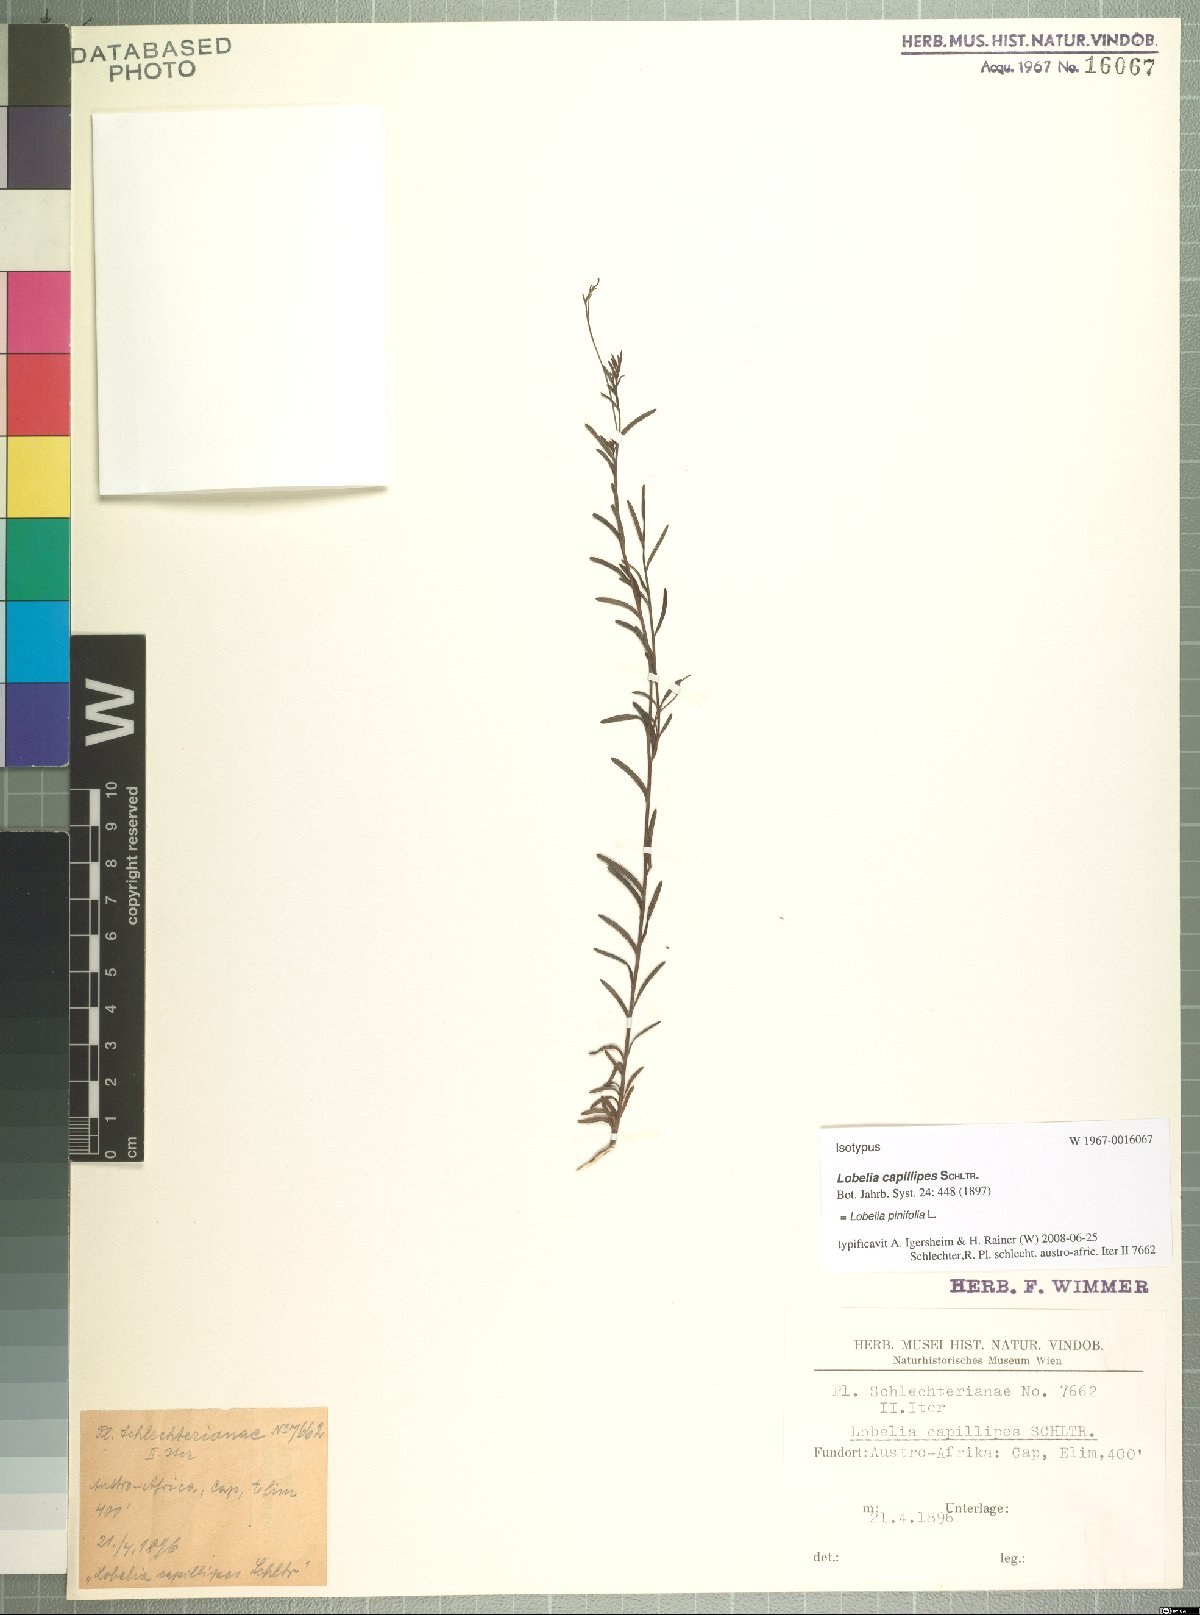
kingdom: Plantae
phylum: Tracheophyta
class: Magnoliopsida
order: Asterales
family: Campanulaceae
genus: Lobelia
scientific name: Lobelia pinifolia
